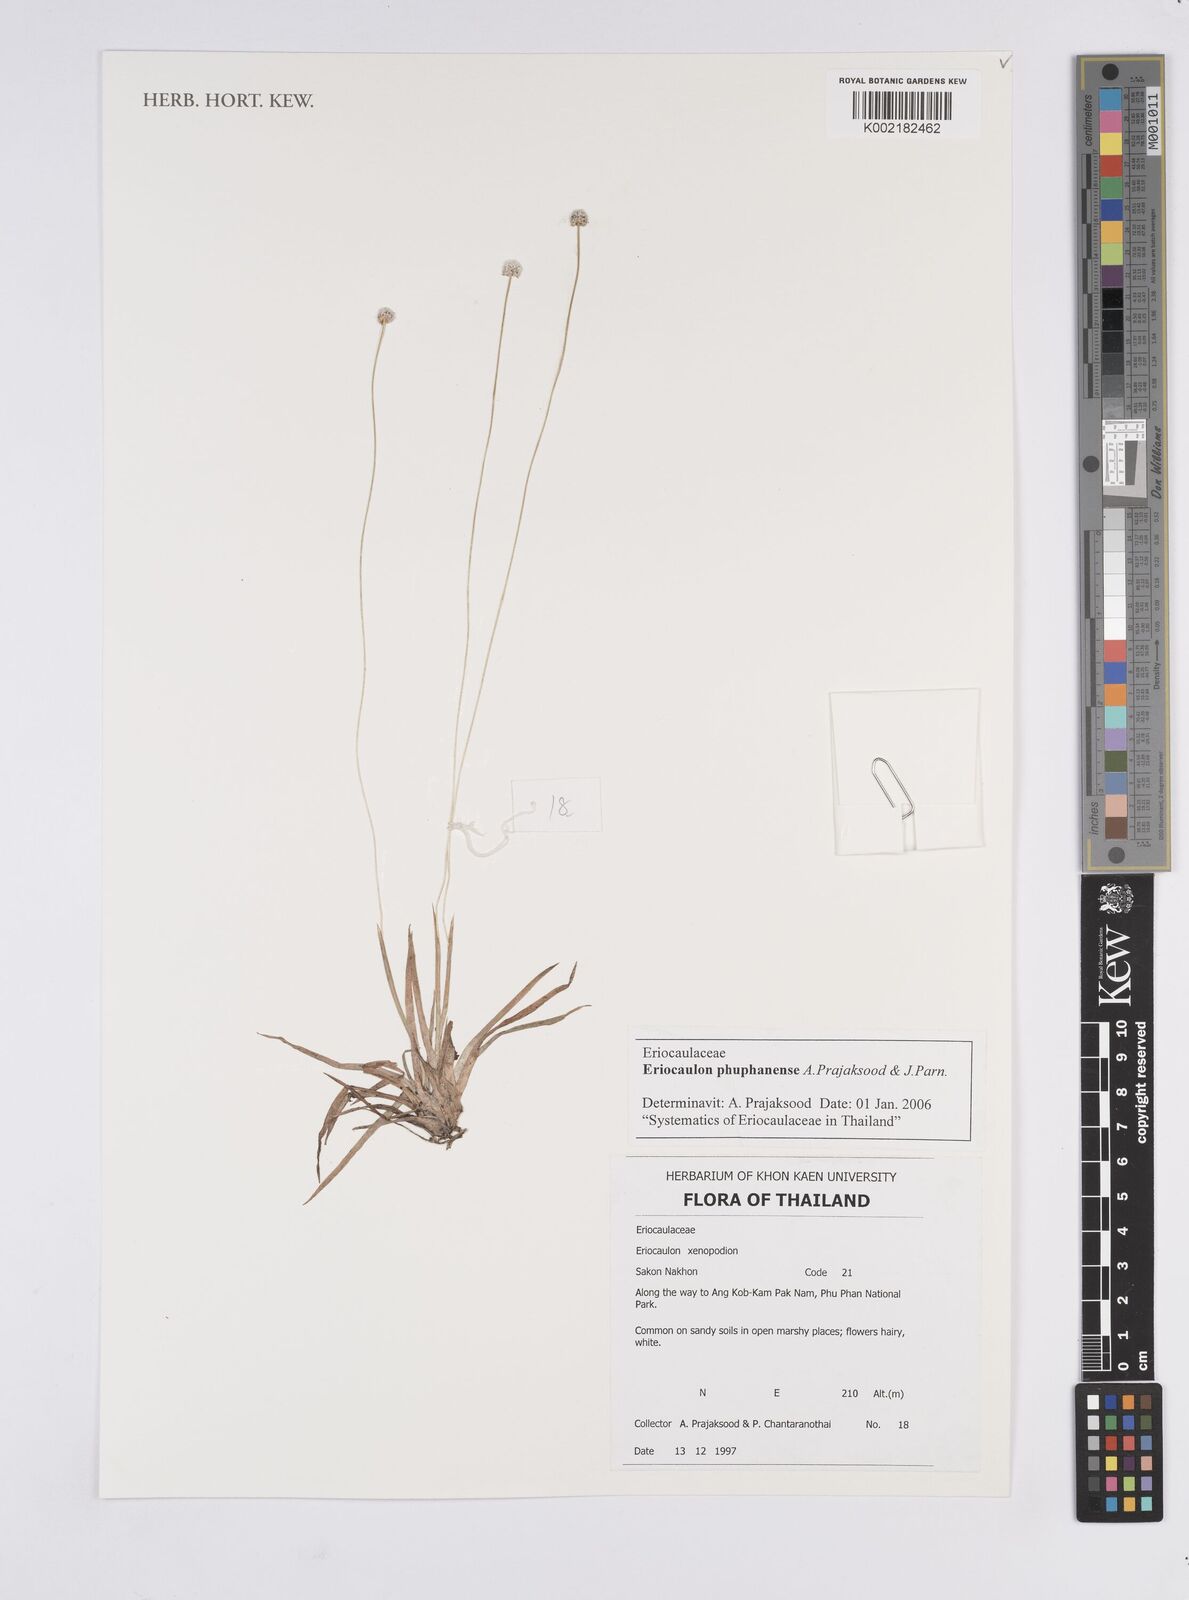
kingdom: Plantae
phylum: Tracheophyta
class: Liliopsida
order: Poales
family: Eriocaulaceae
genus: Eriocaulon
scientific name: Eriocaulon phuphanense
